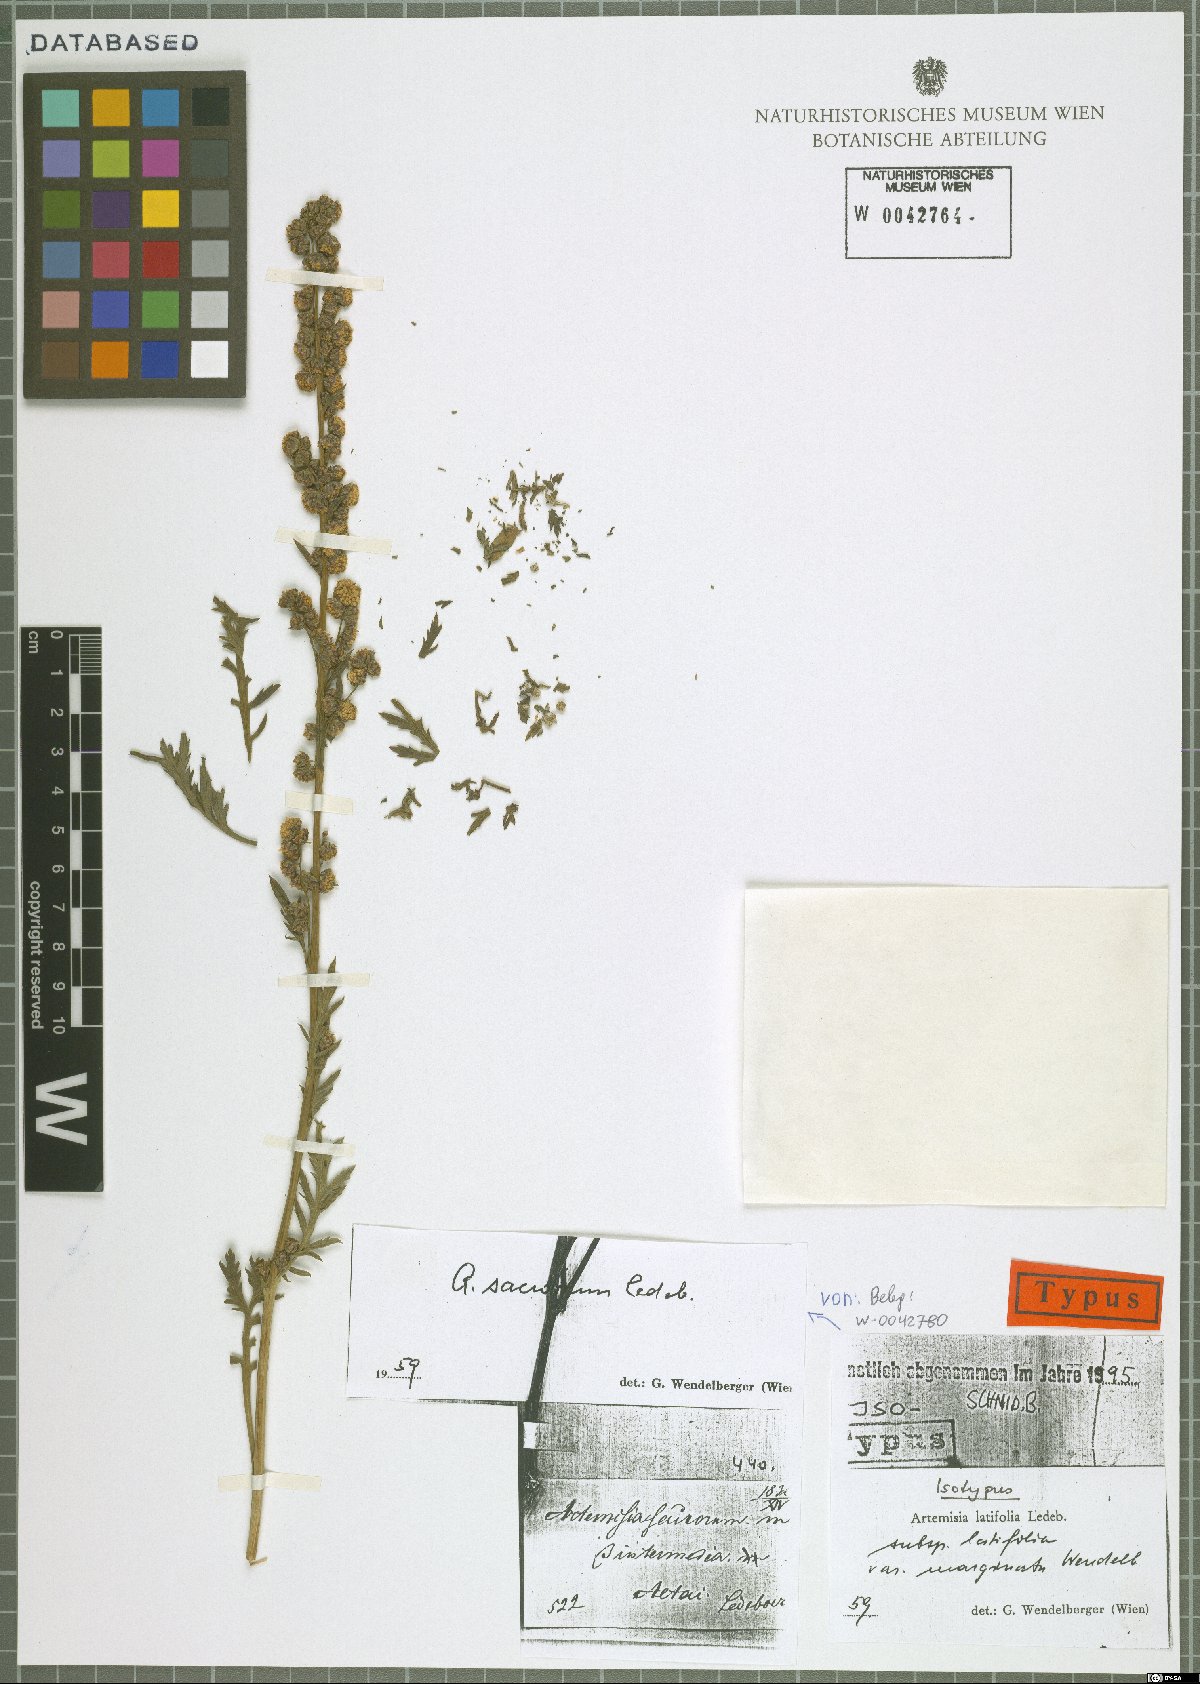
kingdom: Plantae
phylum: Tracheophyta
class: Magnoliopsida
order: Asterales
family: Asteraceae
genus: Artemisia
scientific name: Artemisia latifolia
